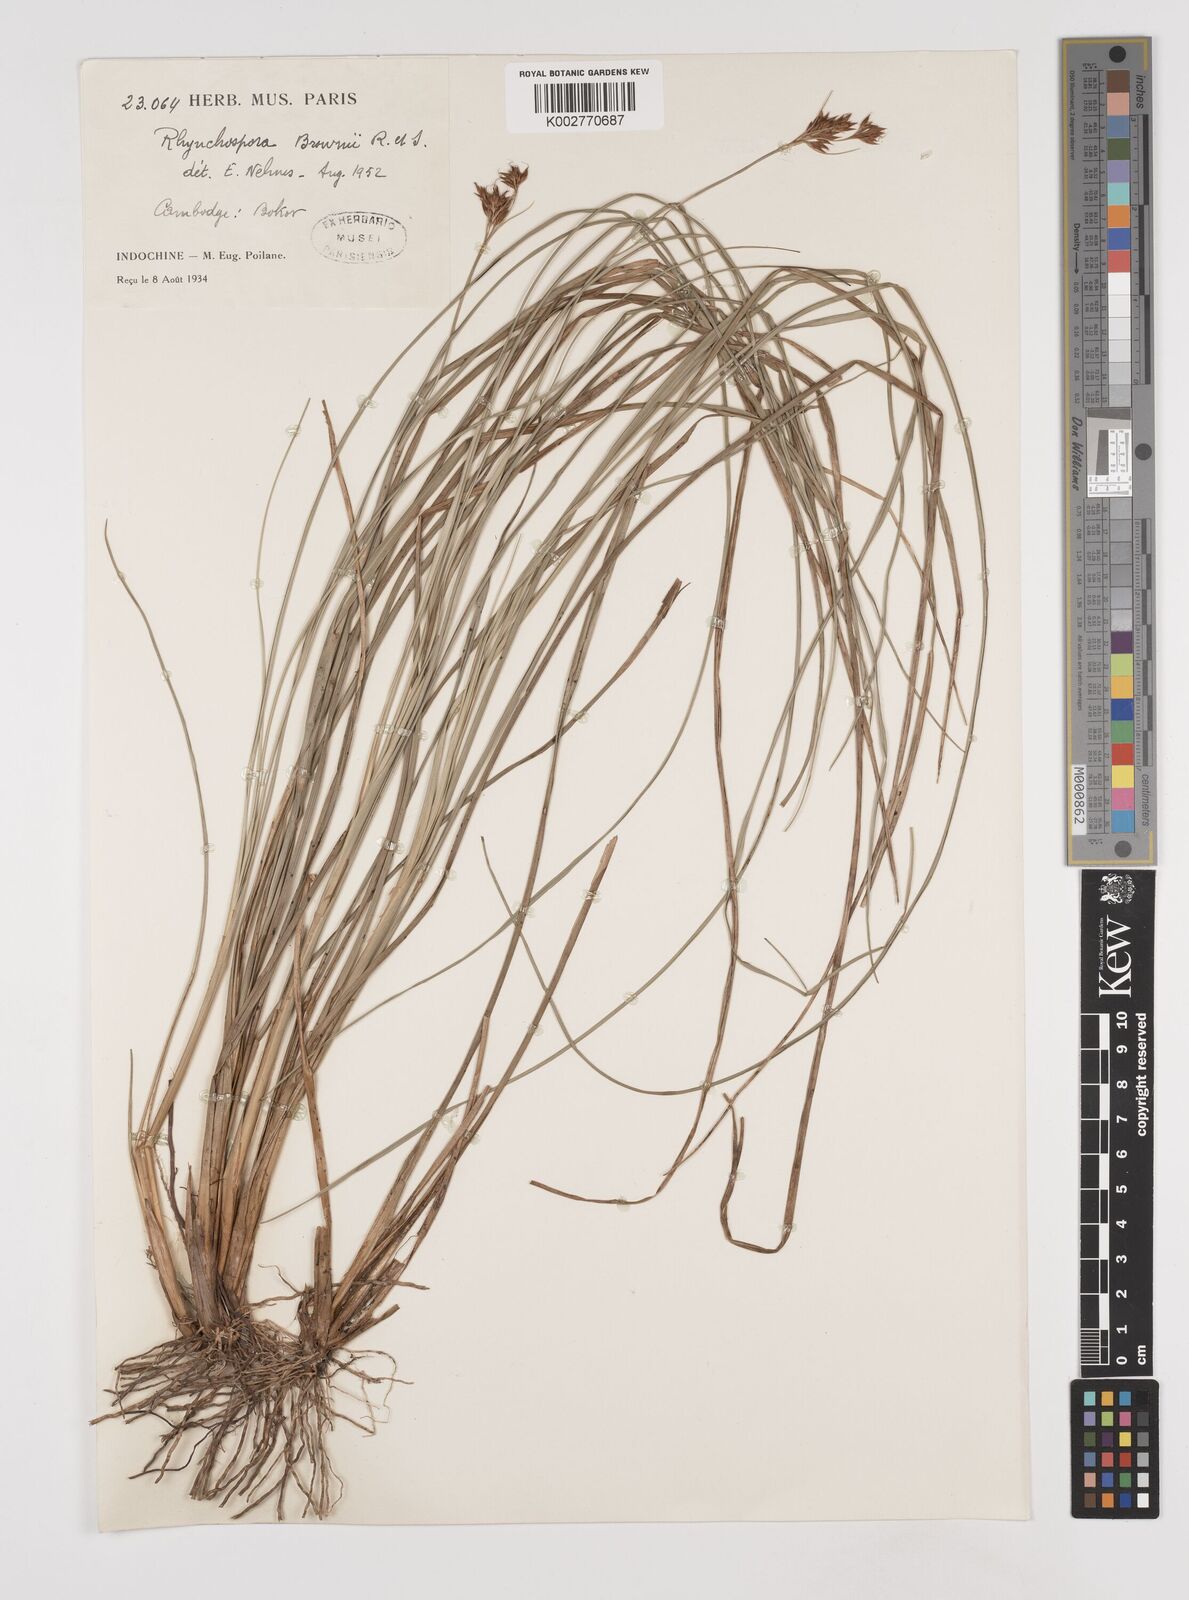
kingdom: Plantae
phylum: Tracheophyta
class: Liliopsida
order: Poales
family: Cyperaceae
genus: Rhynchospora
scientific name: Rhynchospora rugosa
